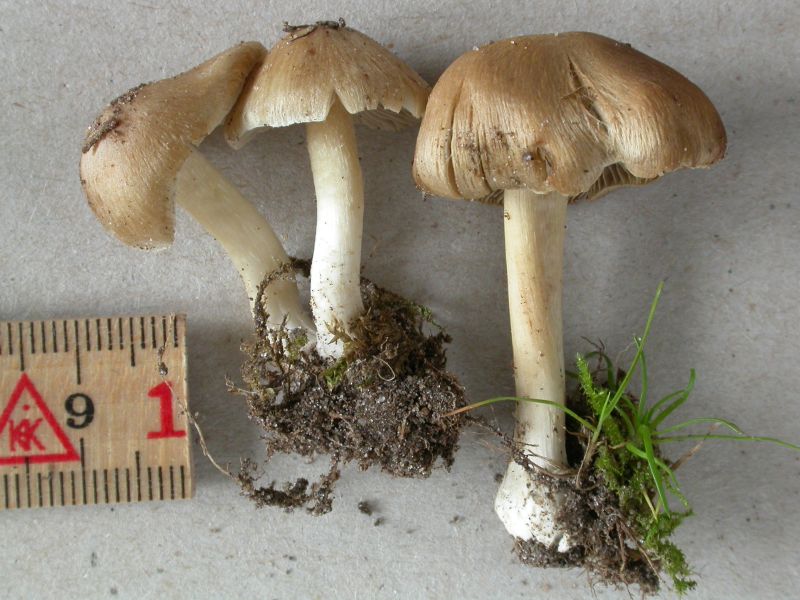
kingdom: Fungi
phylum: Basidiomycota
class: Agaricomycetes
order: Agaricales
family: Inocybaceae
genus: Inosperma
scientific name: Inosperma
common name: strågul trævlhat
